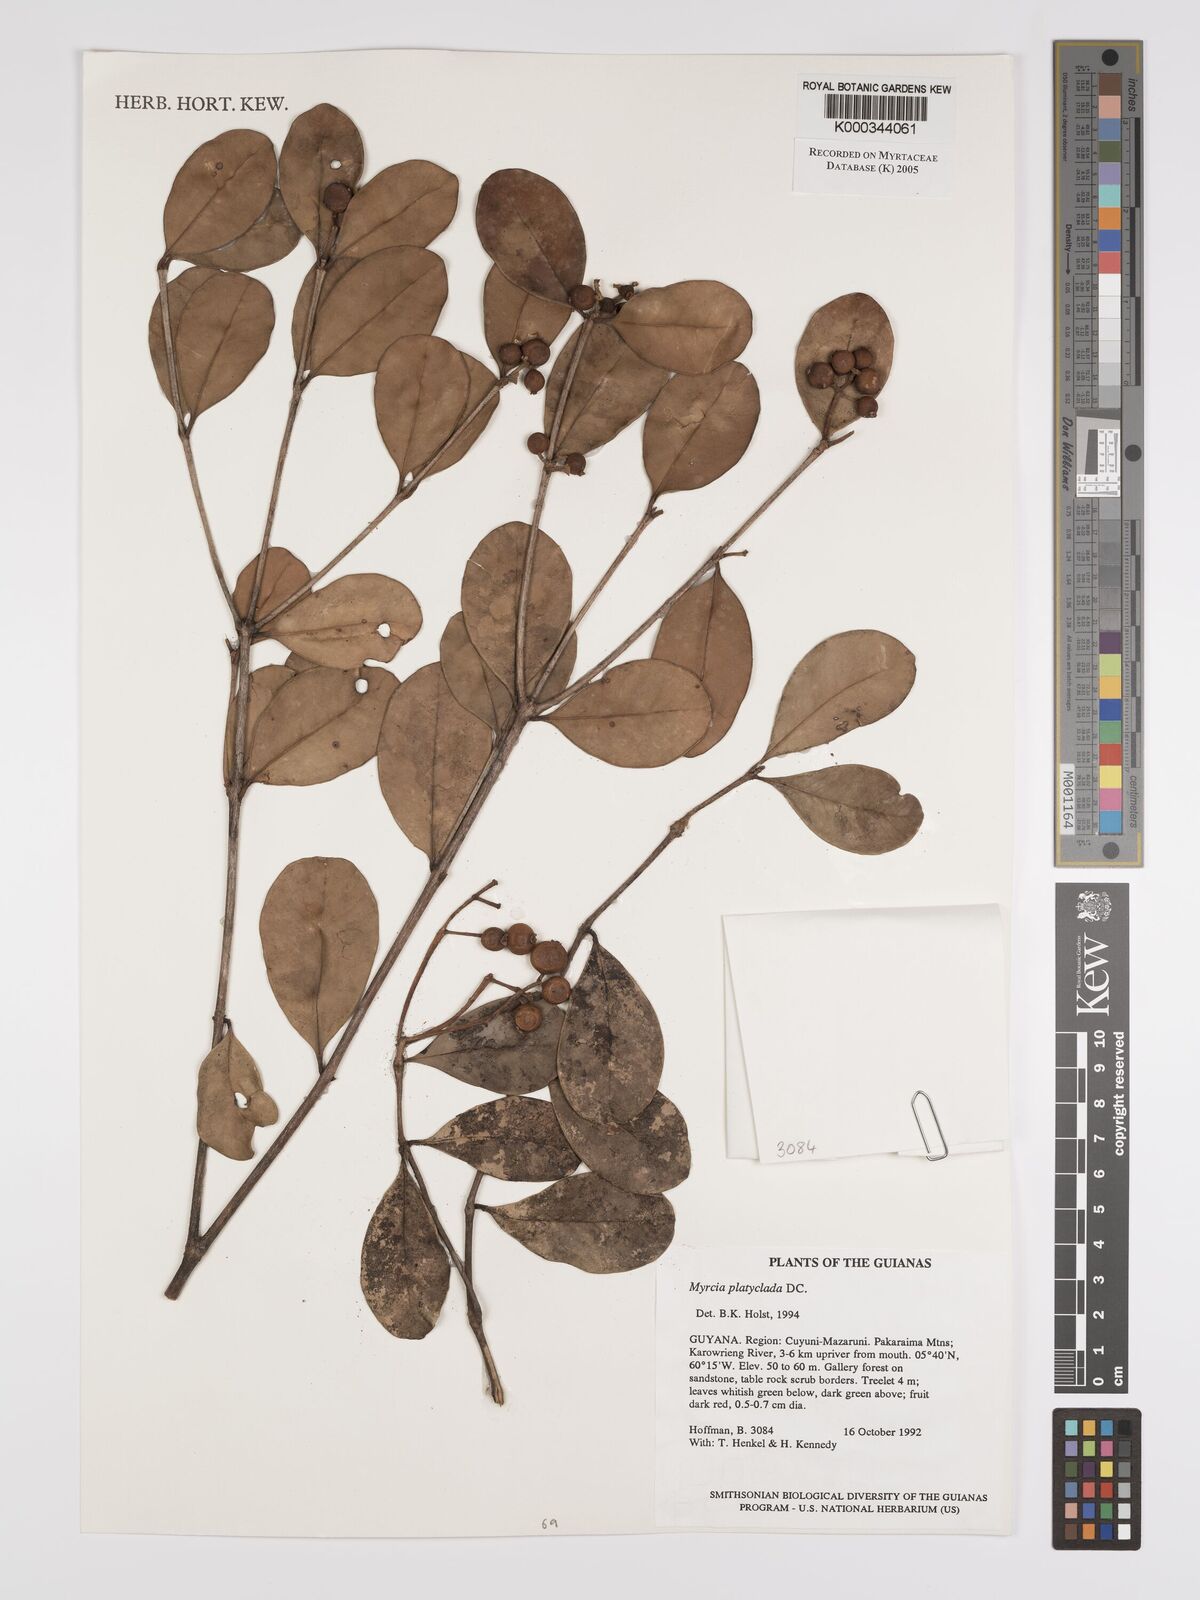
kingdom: Plantae
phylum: Tracheophyta
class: Magnoliopsida
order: Myrtales
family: Myrtaceae
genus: Myrcia
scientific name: Myrcia platyclada
